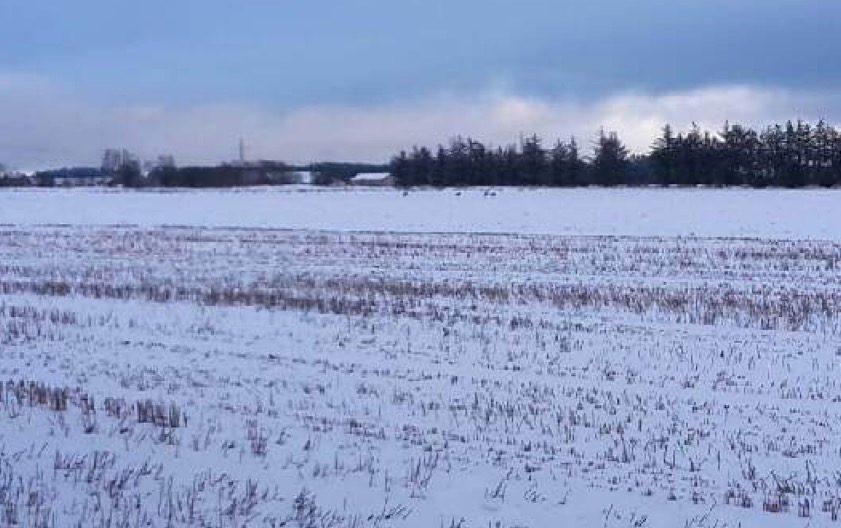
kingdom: Animalia
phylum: Chordata
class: Aves
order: Gruiformes
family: Gruidae
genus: Grus
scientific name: Grus grus
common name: Trane
